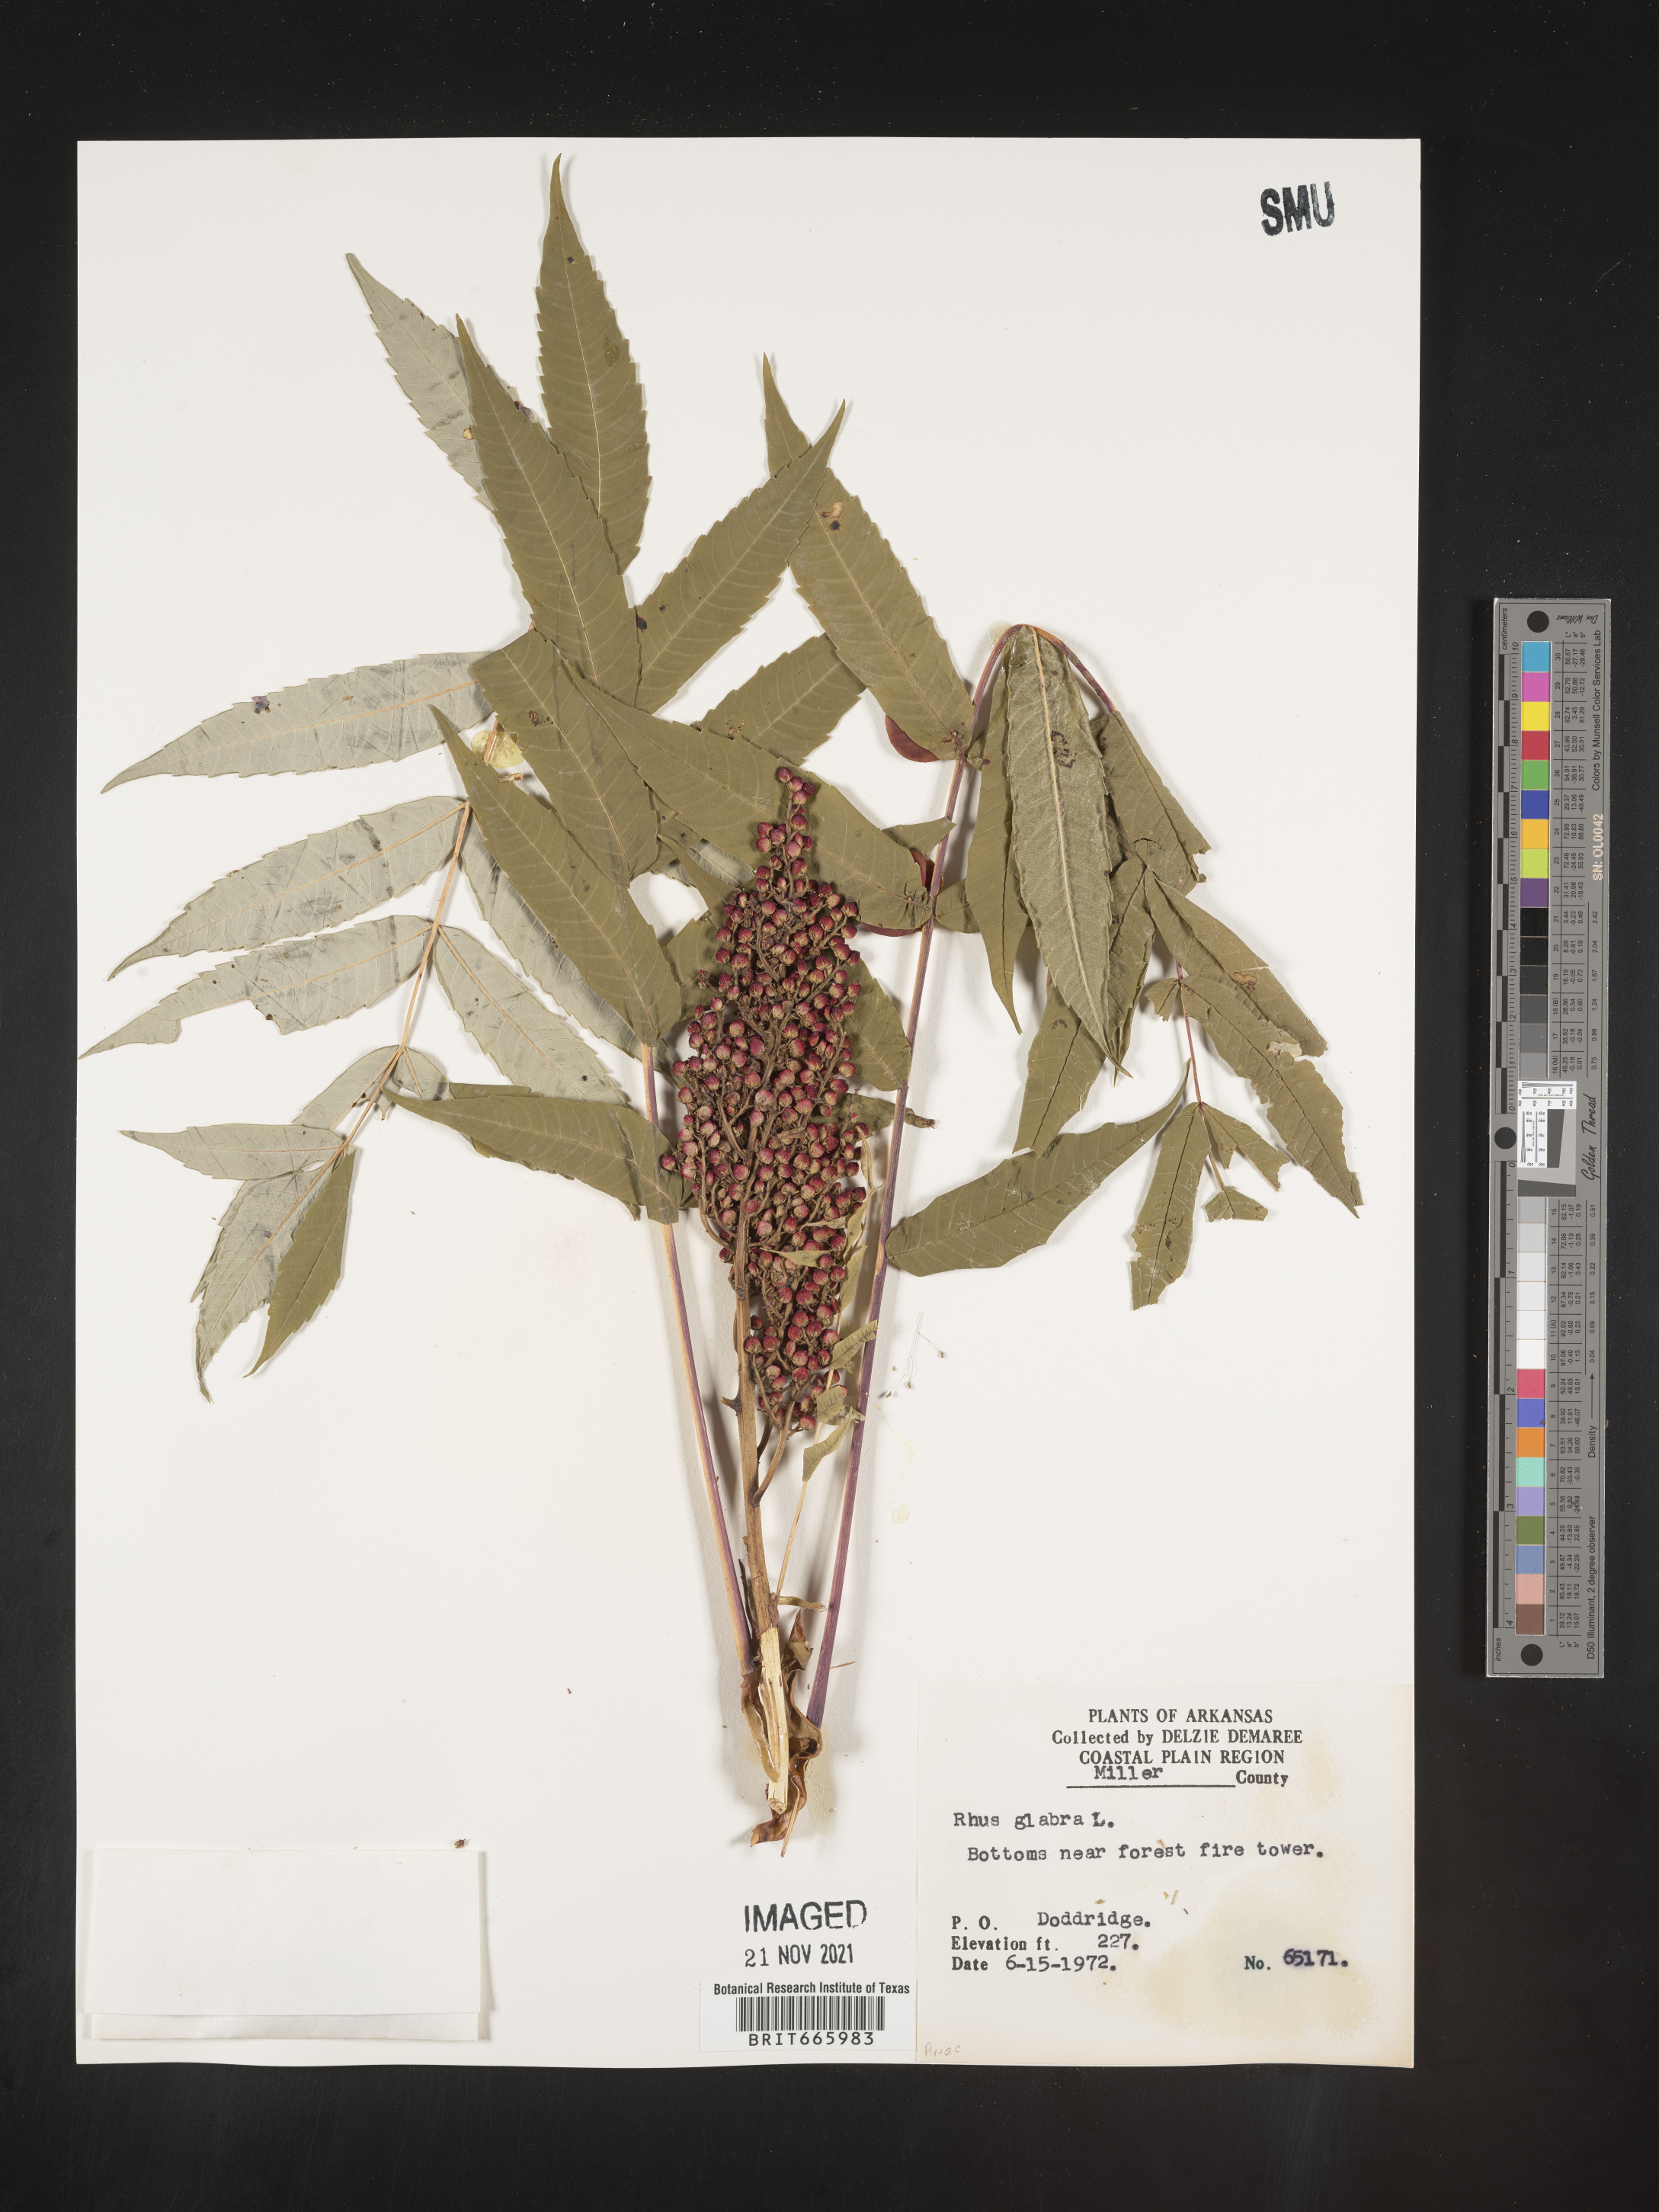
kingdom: Plantae
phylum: Tracheophyta
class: Magnoliopsida
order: Sapindales
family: Anacardiaceae
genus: Rhus
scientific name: Rhus glabra
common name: Scarlet sumac
